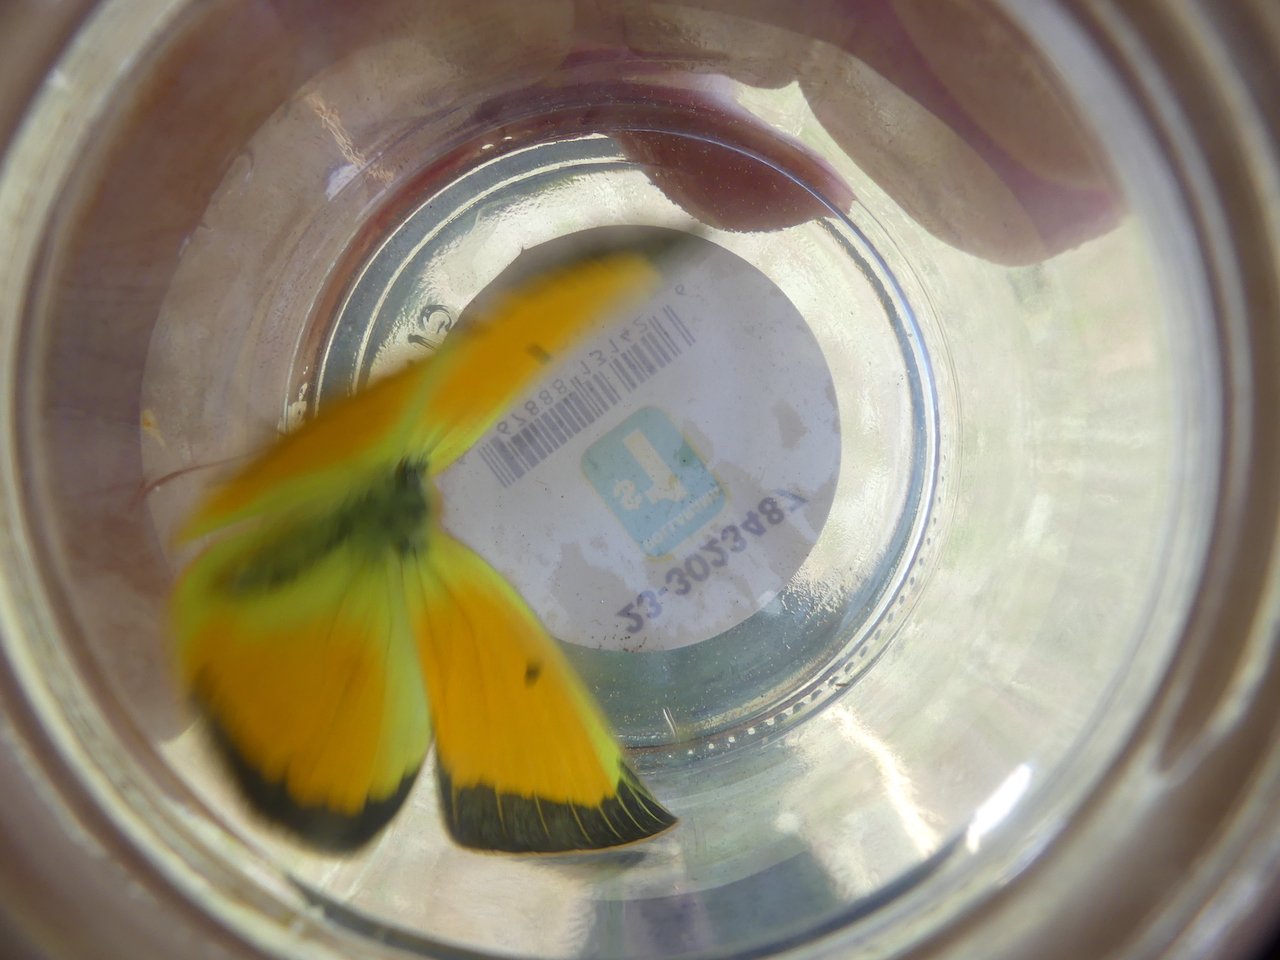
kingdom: Animalia
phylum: Arthropoda
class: Insecta
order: Lepidoptera
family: Pieridae
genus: Colias
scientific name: Colias christina
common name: Christina Sulphur
